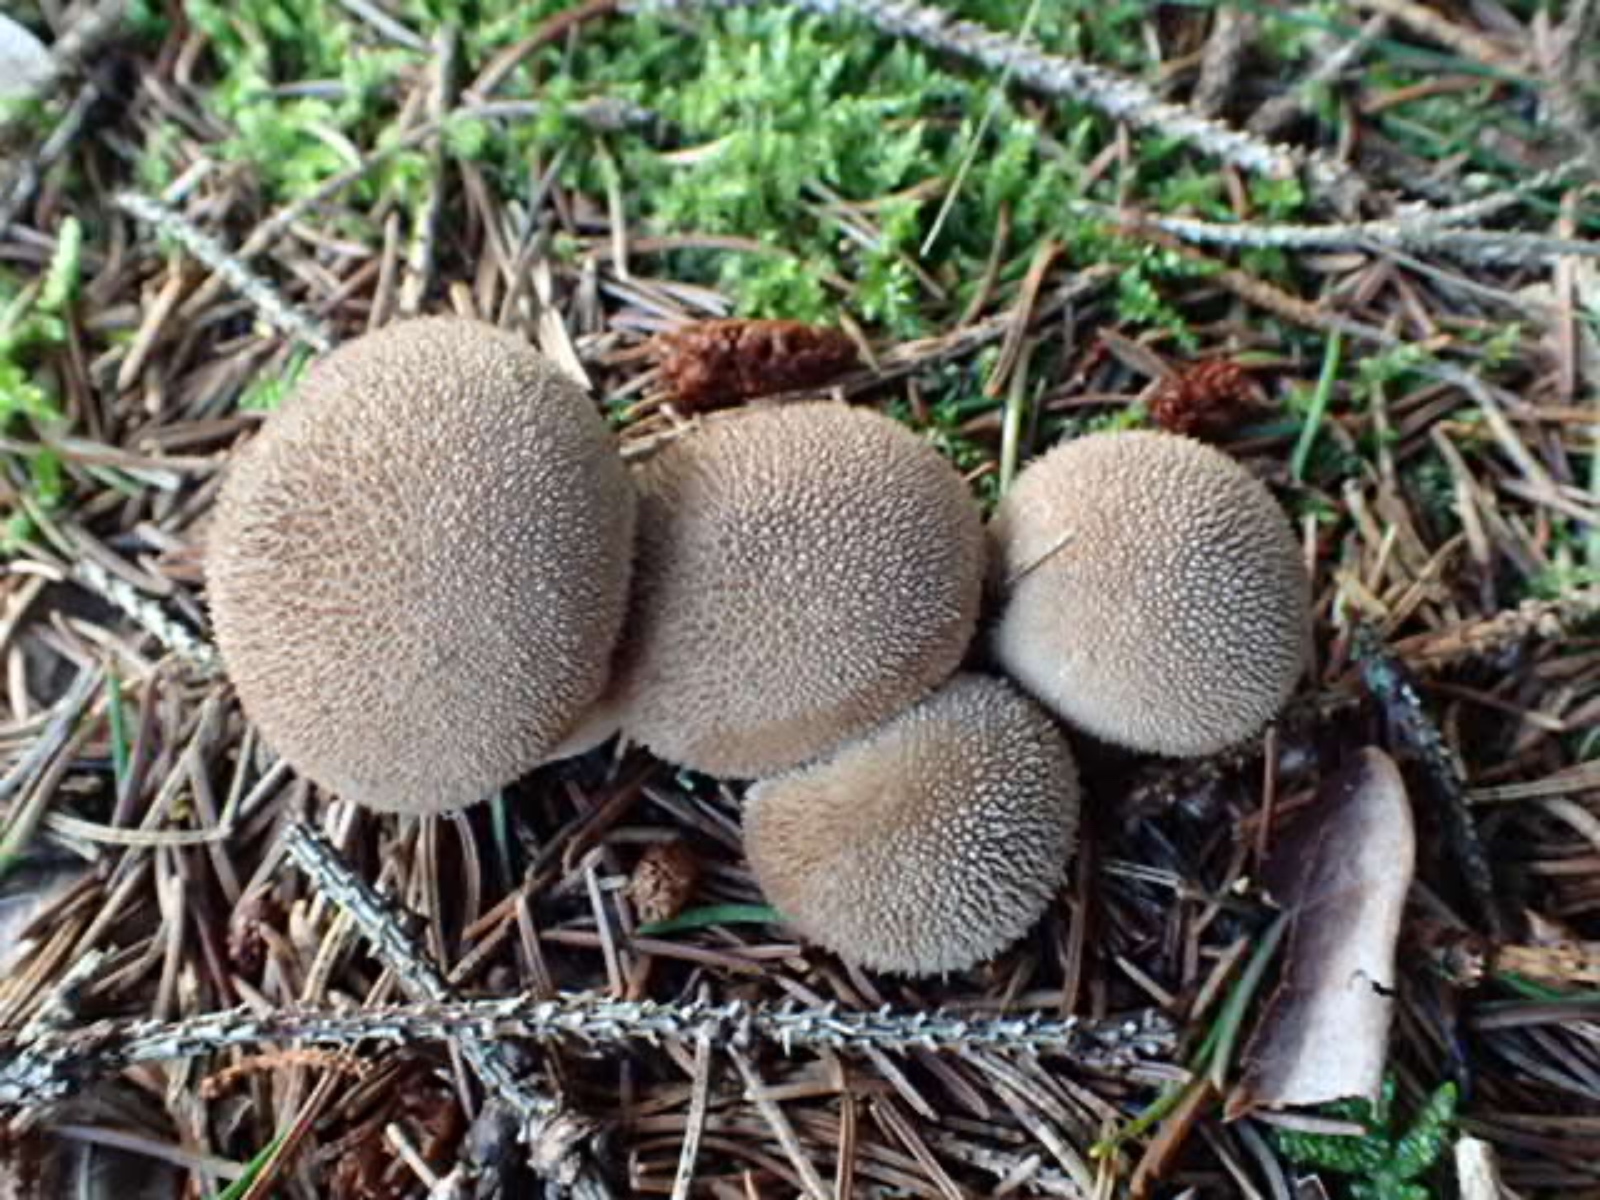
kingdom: Fungi
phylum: Basidiomycota
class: Agaricomycetes
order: Agaricales
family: Lycoperdaceae
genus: Lycoperdon
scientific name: Lycoperdon nigrescens
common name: sortagtig støvbold
